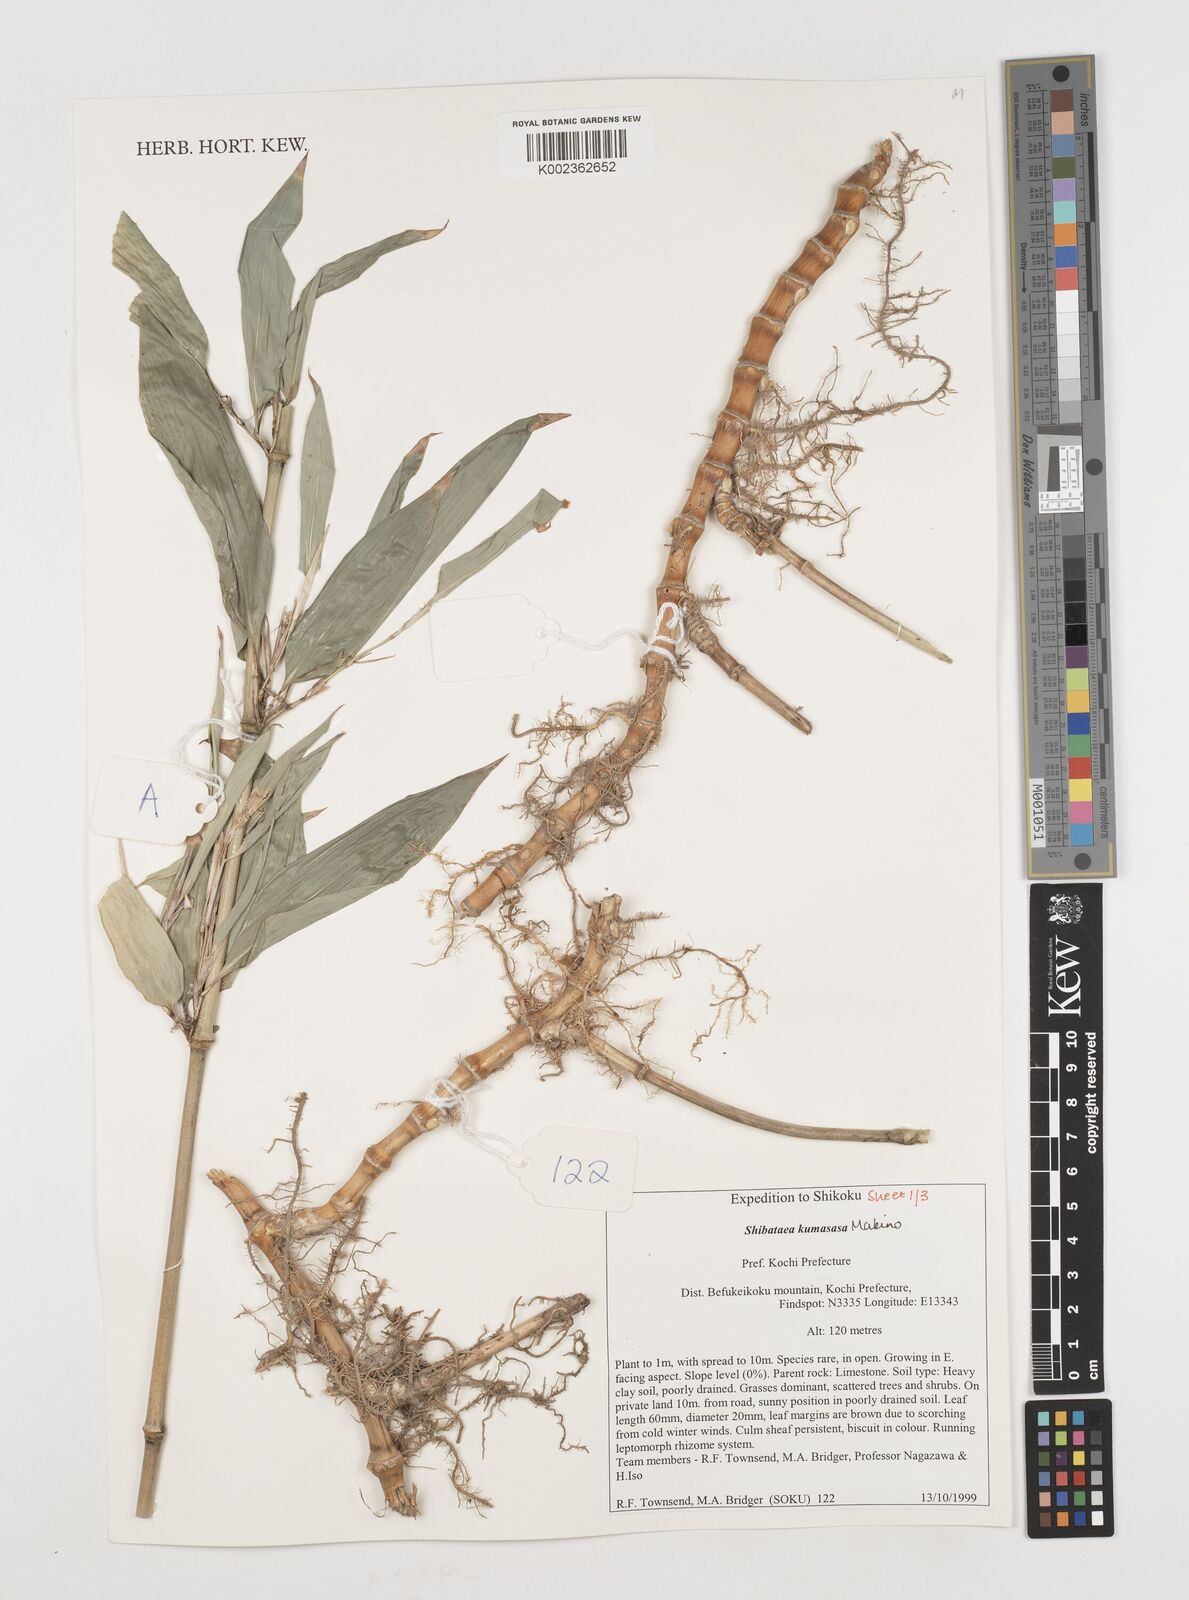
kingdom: Plantae
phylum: Tracheophyta
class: Liliopsida
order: Poales
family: Poaceae
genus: Shibataea
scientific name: Shibataea kumasasa
